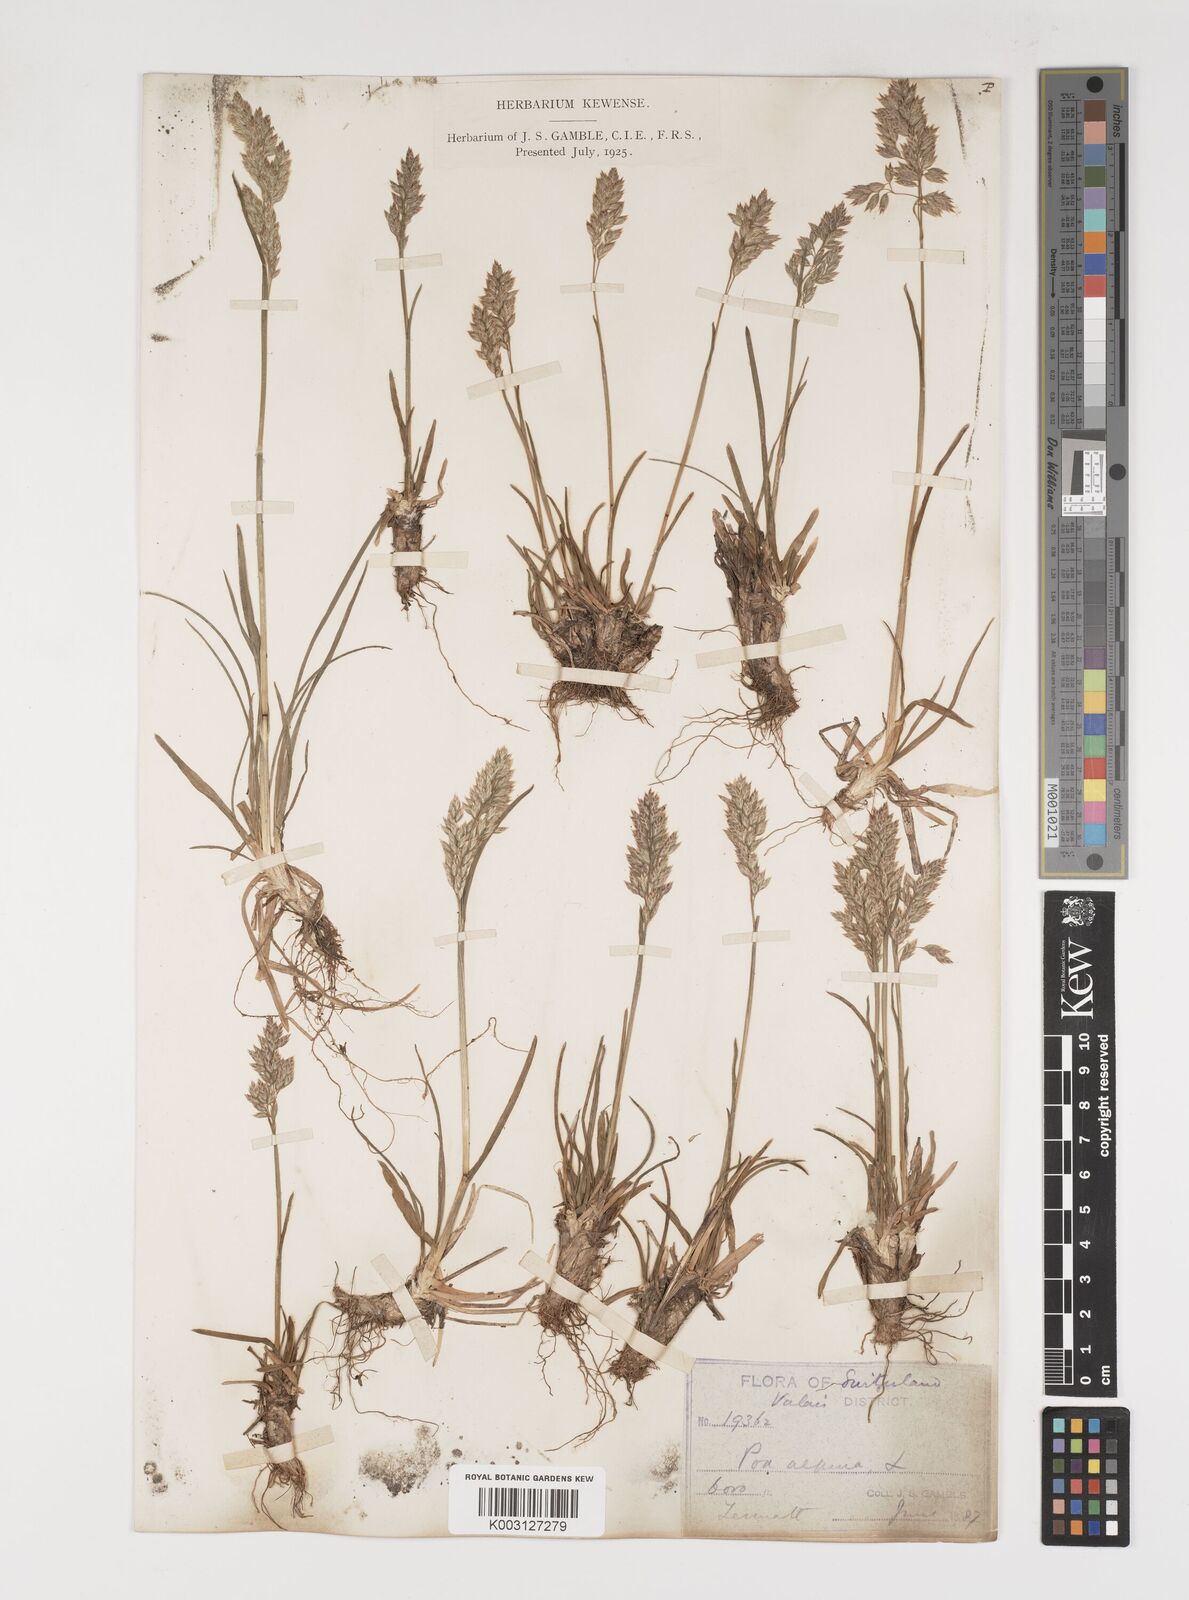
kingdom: Plantae
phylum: Tracheophyta
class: Liliopsida
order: Poales
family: Poaceae
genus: Poa
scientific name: Poa alpina
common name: Alpine bluegrass
